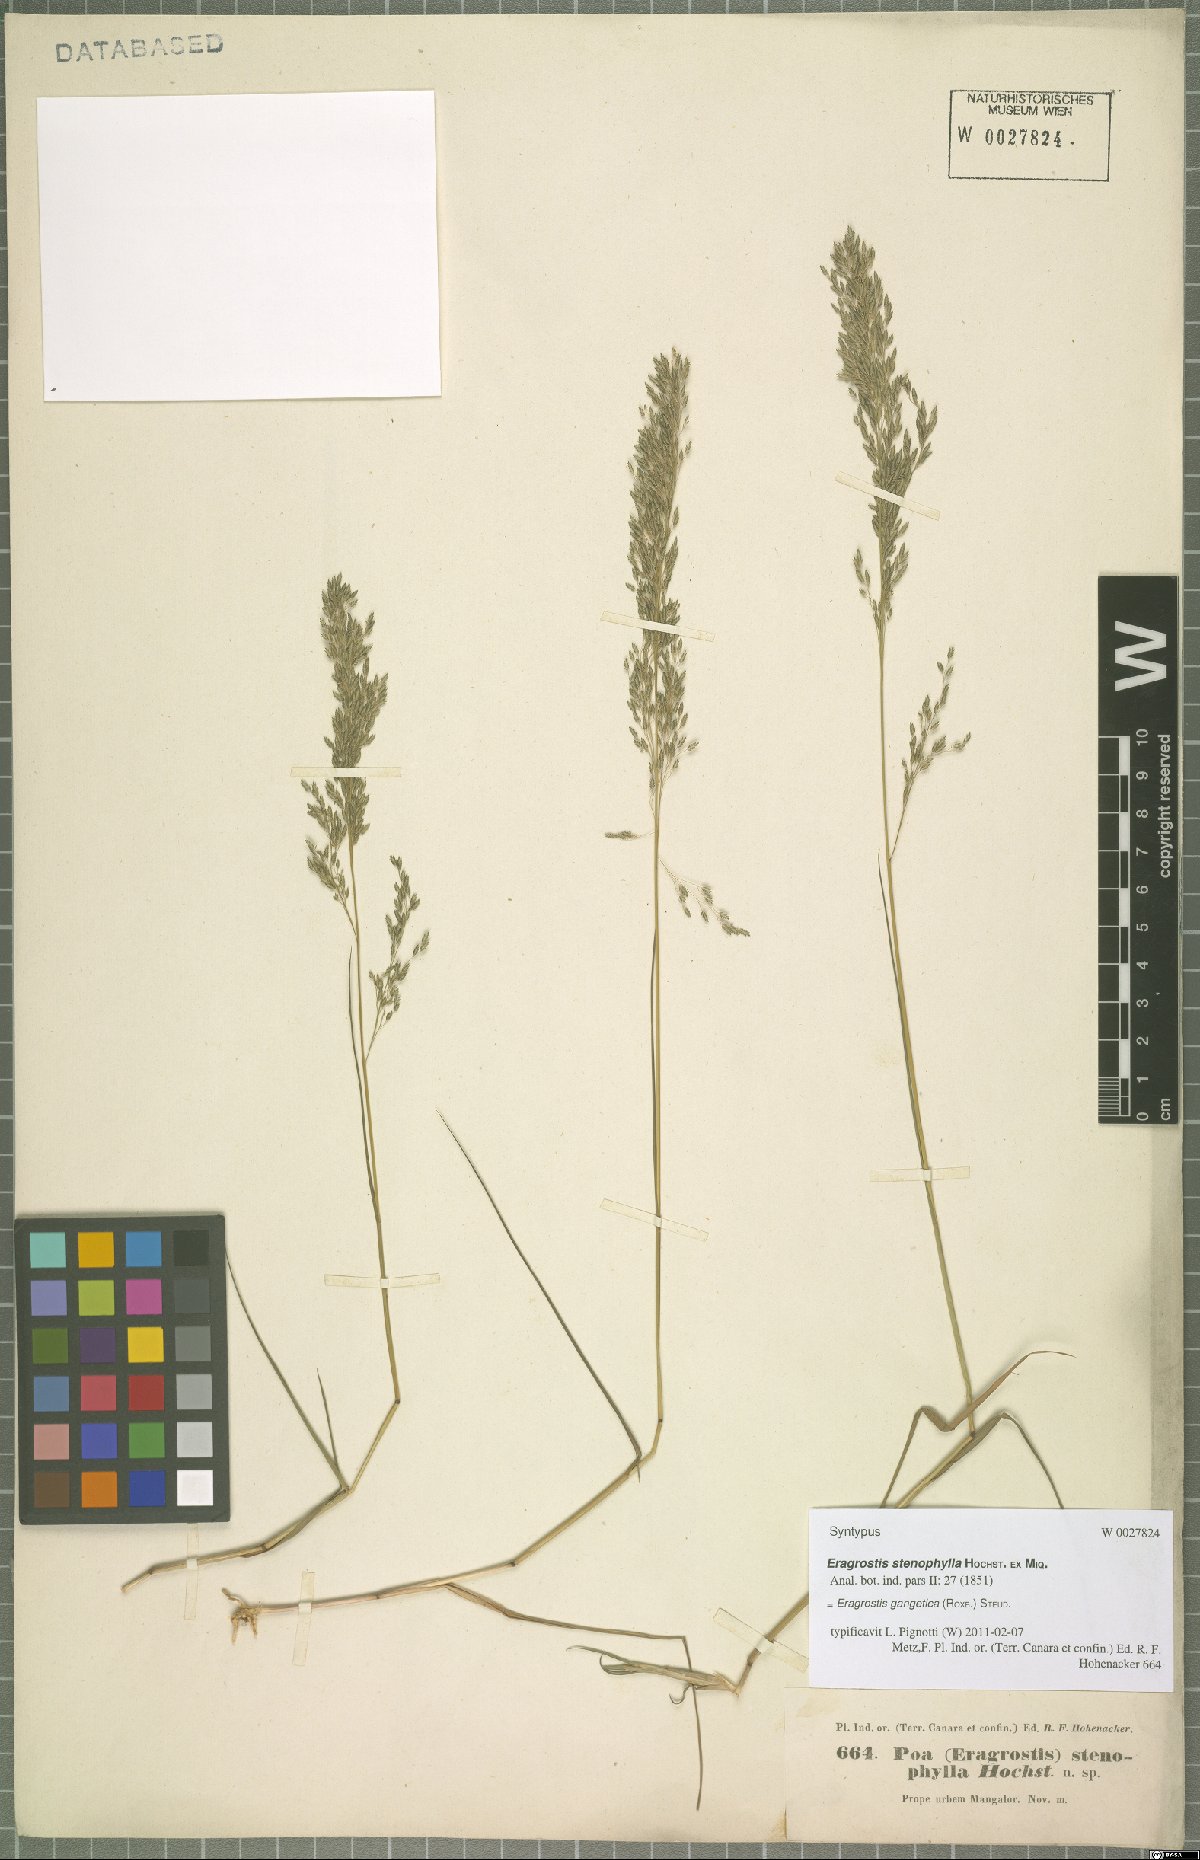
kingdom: Plantae
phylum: Tracheophyta
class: Liliopsida
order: Poales
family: Poaceae
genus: Eragrostis
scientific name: Eragrostis gangetica
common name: Slimflower lovegrass
